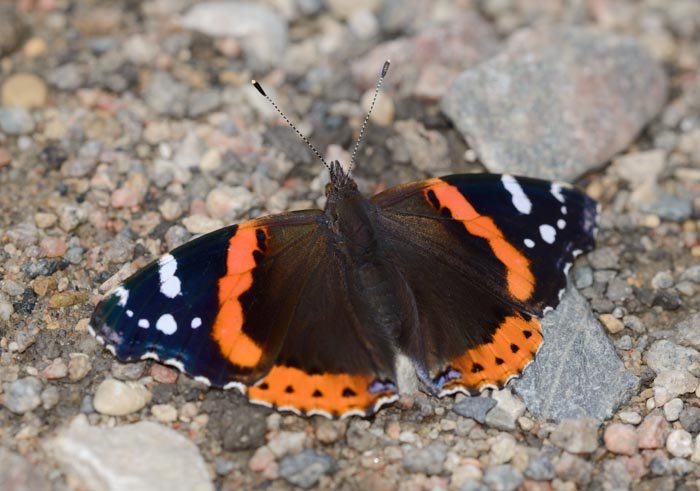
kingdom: Animalia
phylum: Arthropoda
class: Insecta
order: Lepidoptera
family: Nymphalidae
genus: Vanessa
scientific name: Vanessa atalanta
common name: Red Admiral
